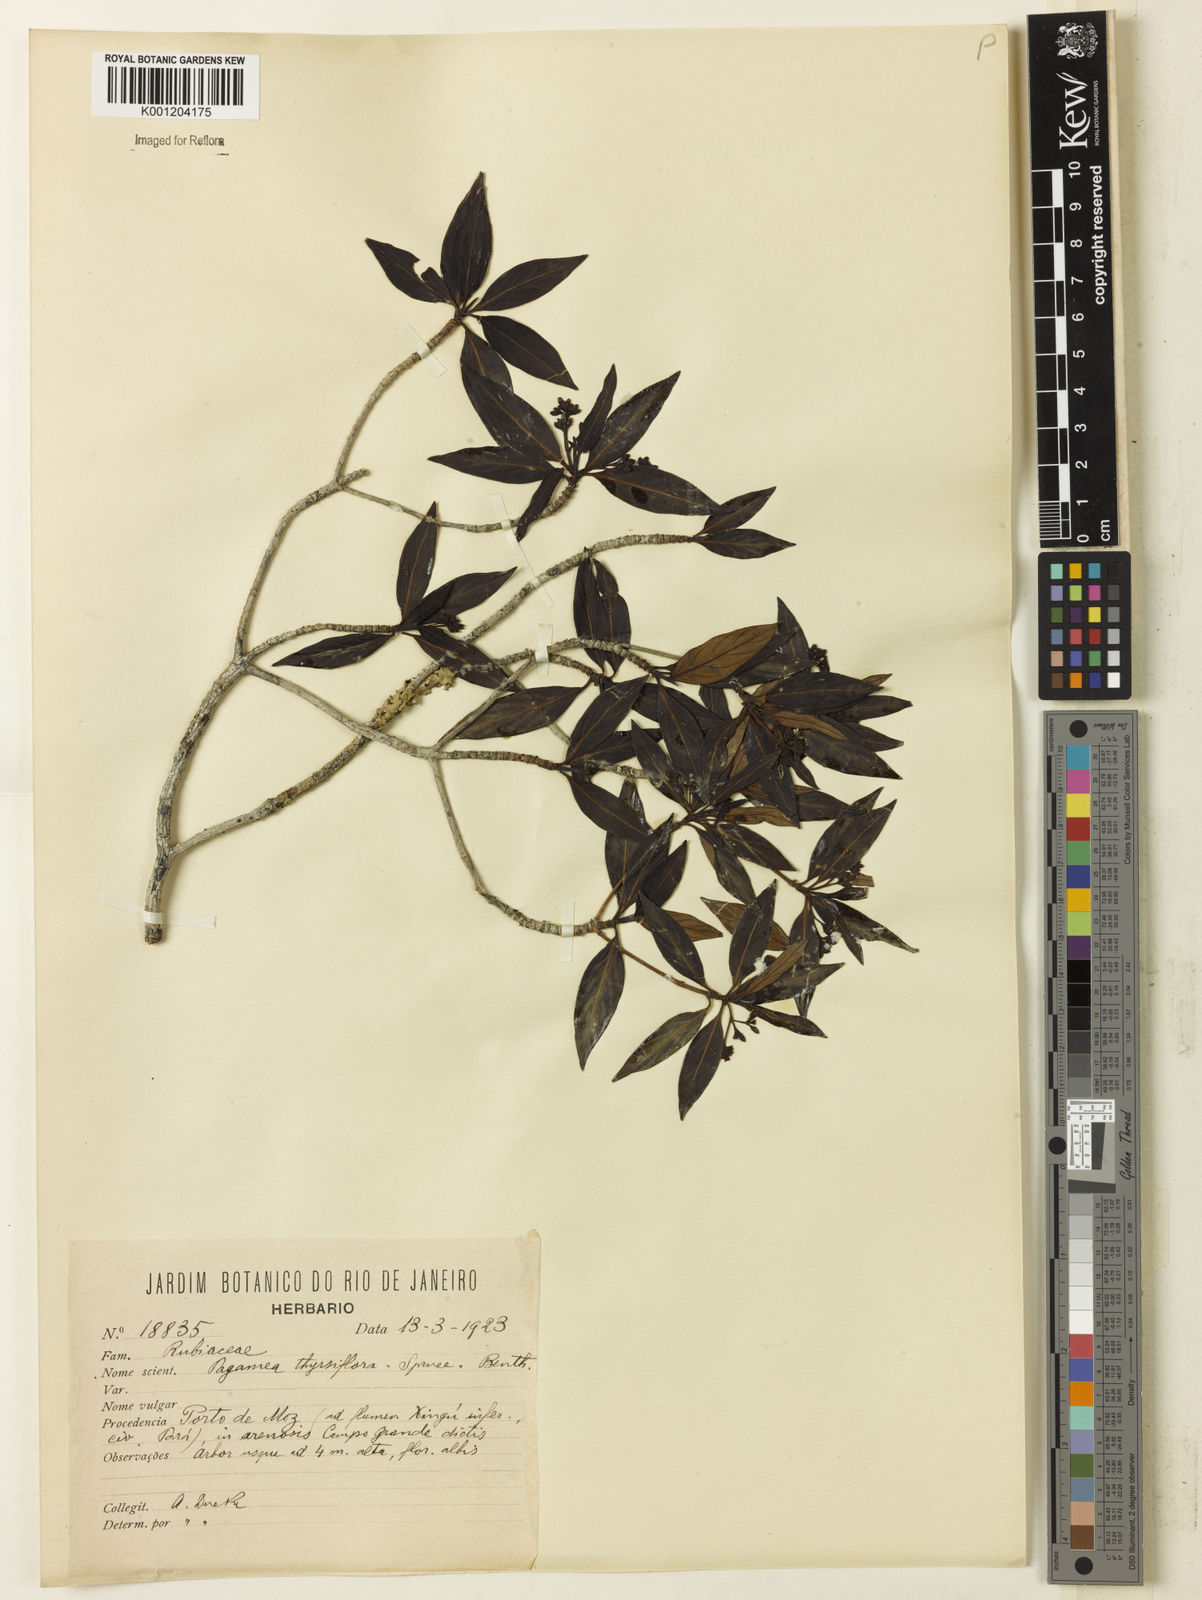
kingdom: Plantae
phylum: Tracheophyta
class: Magnoliopsida
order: Gentianales
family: Rubiaceae
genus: Pagamea
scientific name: Pagamea thyrsiflora
